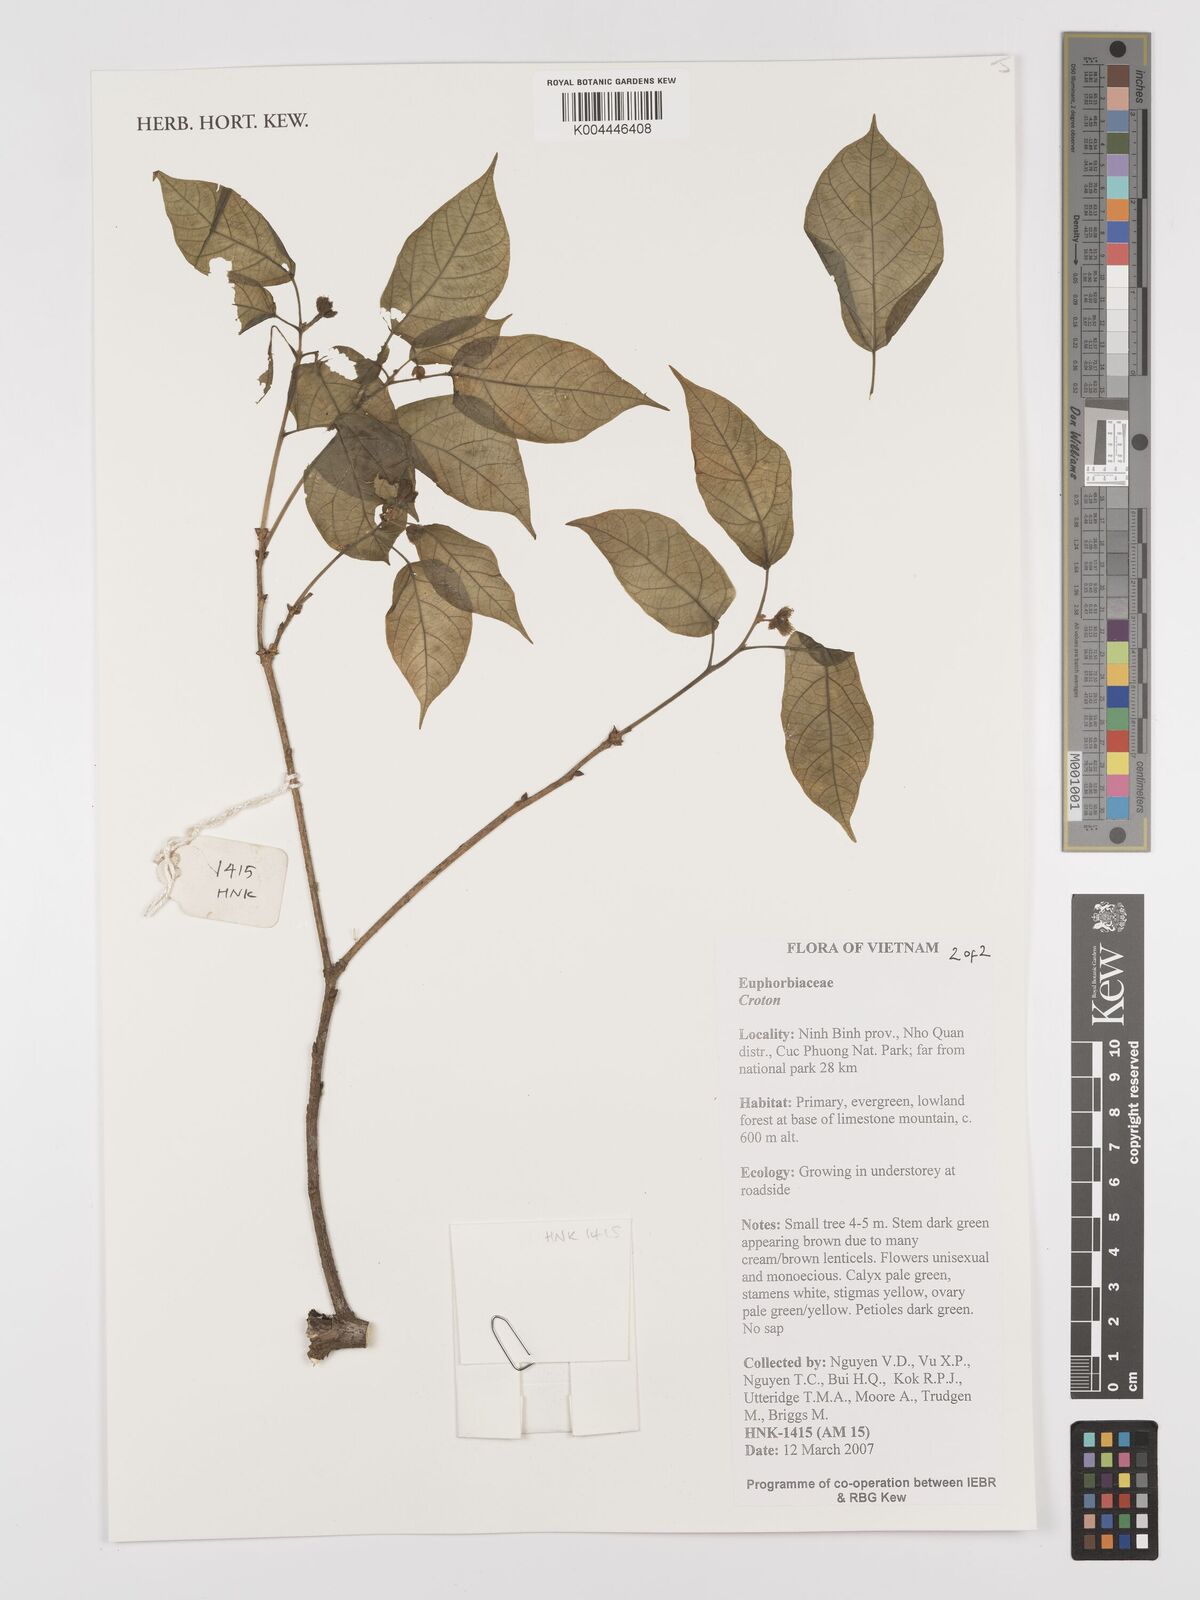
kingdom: Plantae
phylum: Tracheophyta
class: Magnoliopsida
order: Malpighiales
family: Euphorbiaceae
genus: Croton
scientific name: Croton
